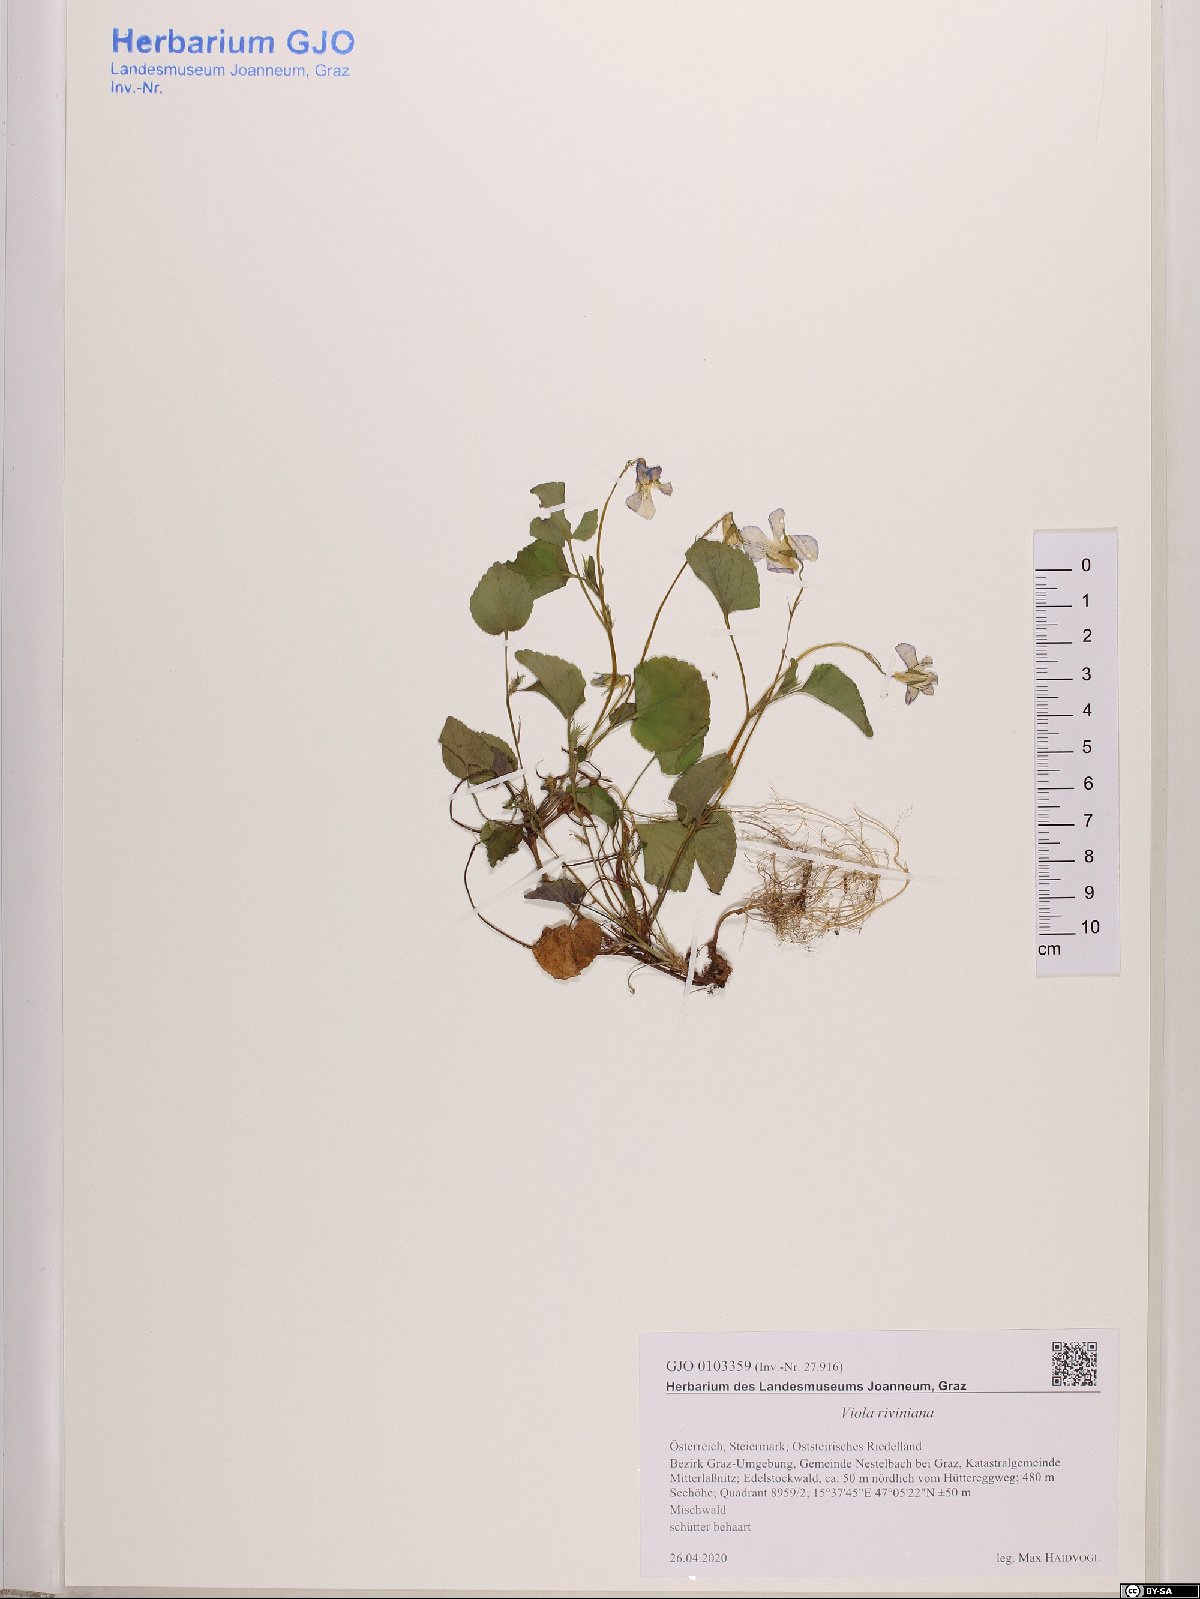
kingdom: Plantae
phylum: Tracheophyta
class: Magnoliopsida
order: Malpighiales
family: Violaceae
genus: Viola
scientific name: Viola riviniana
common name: Common dog-violet
